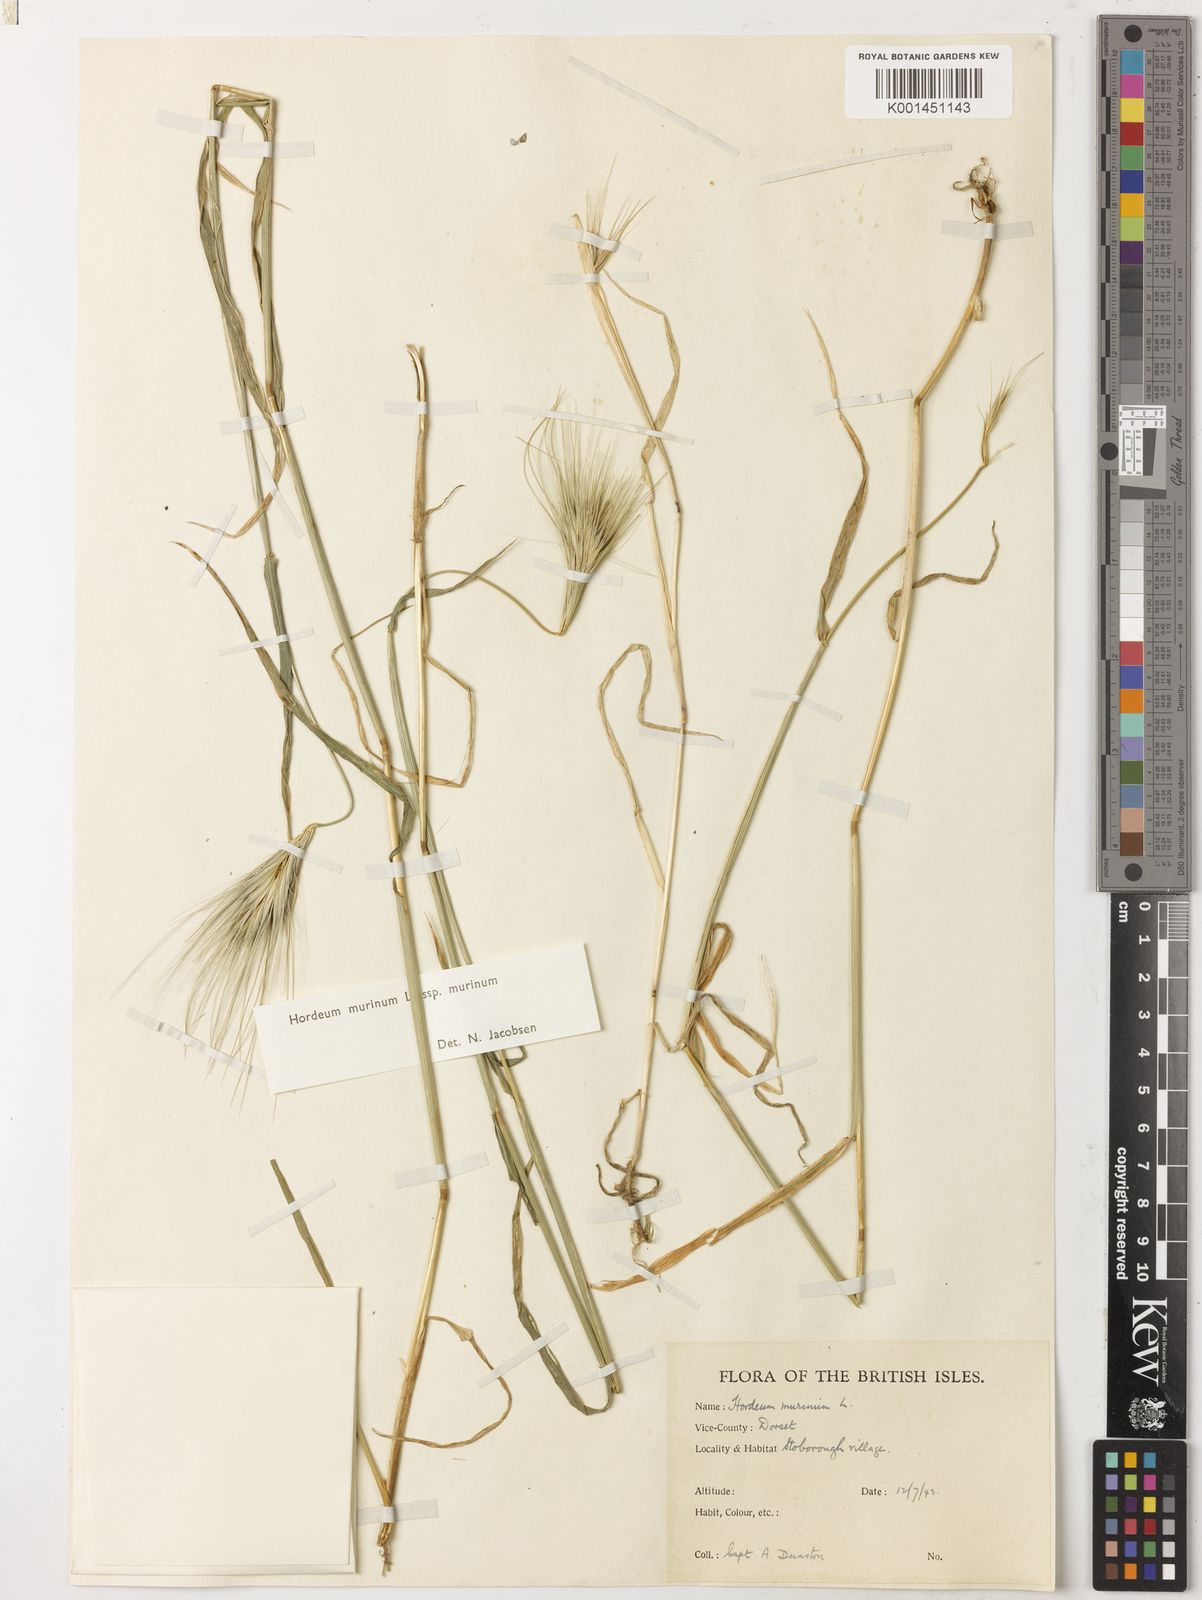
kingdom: Plantae
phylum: Tracheophyta
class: Liliopsida
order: Poales
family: Poaceae
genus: Hordeum
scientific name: Hordeum murinum
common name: Wall barley
